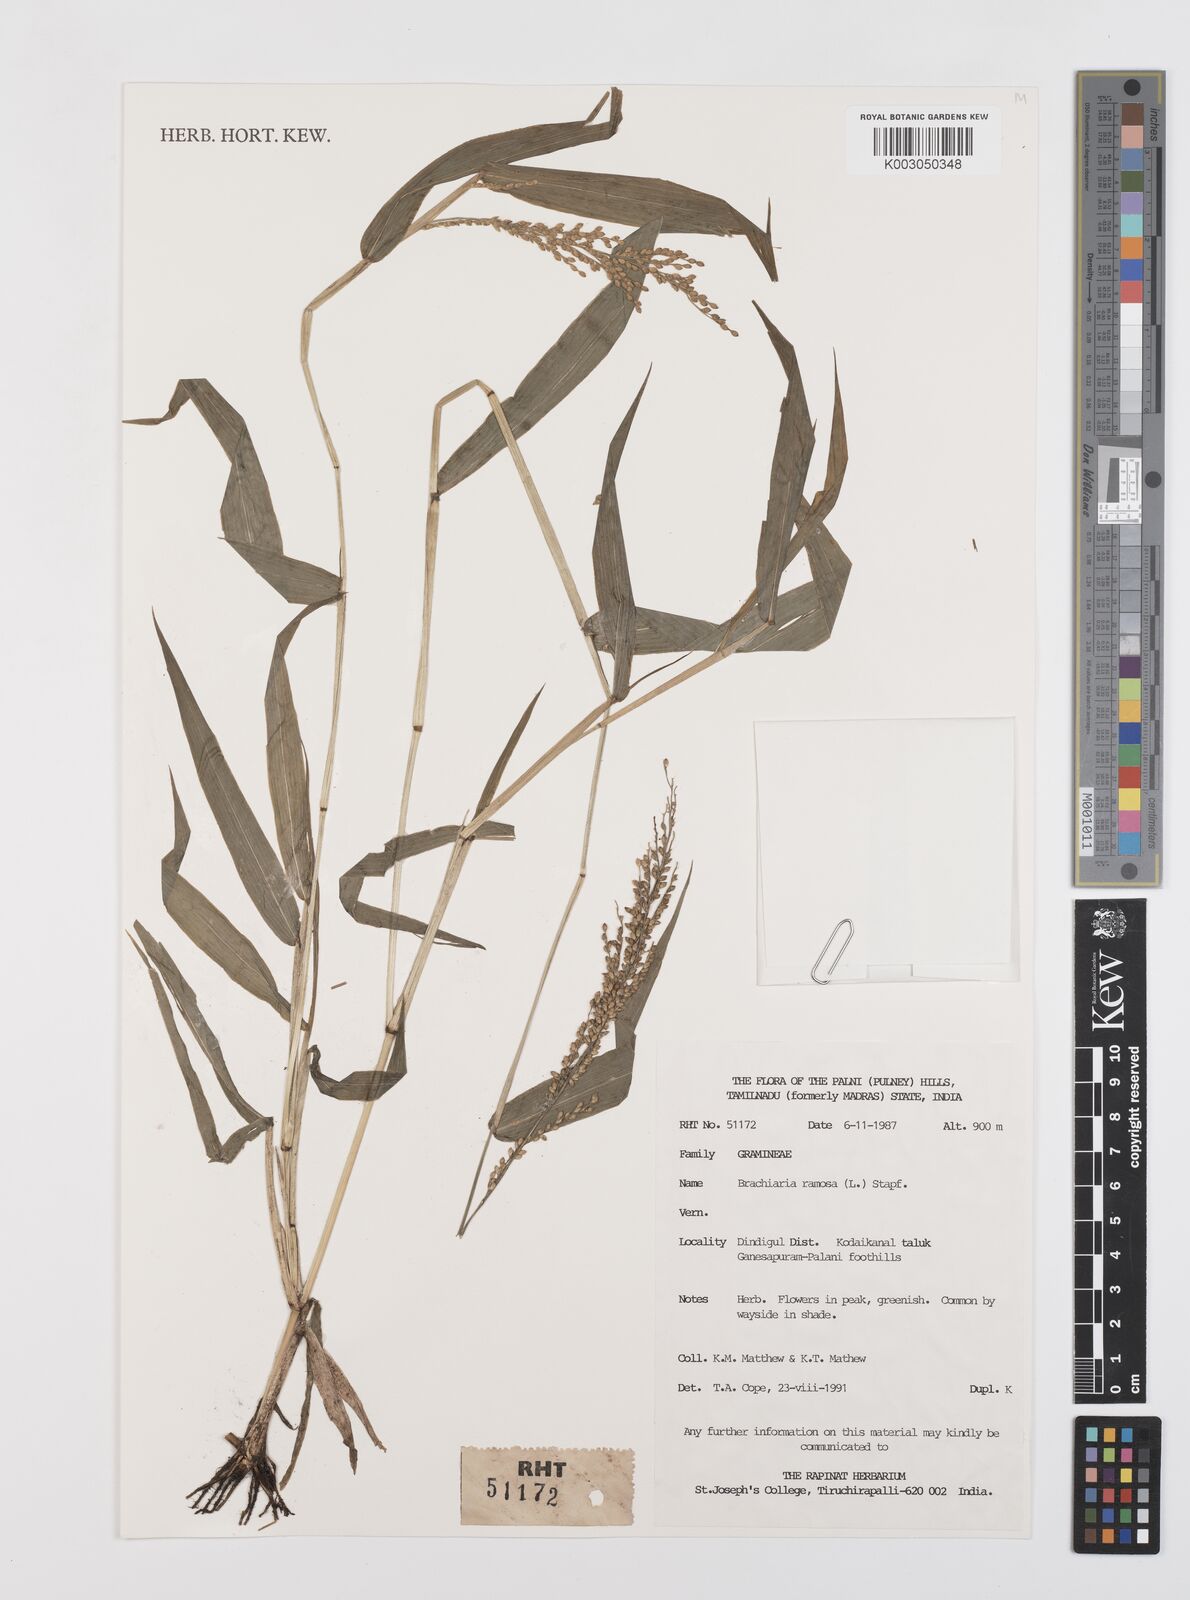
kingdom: Plantae
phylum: Tracheophyta
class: Liliopsida
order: Poales
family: Poaceae
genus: Urochloa
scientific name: Urochloa ramosa
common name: Browntop millet
